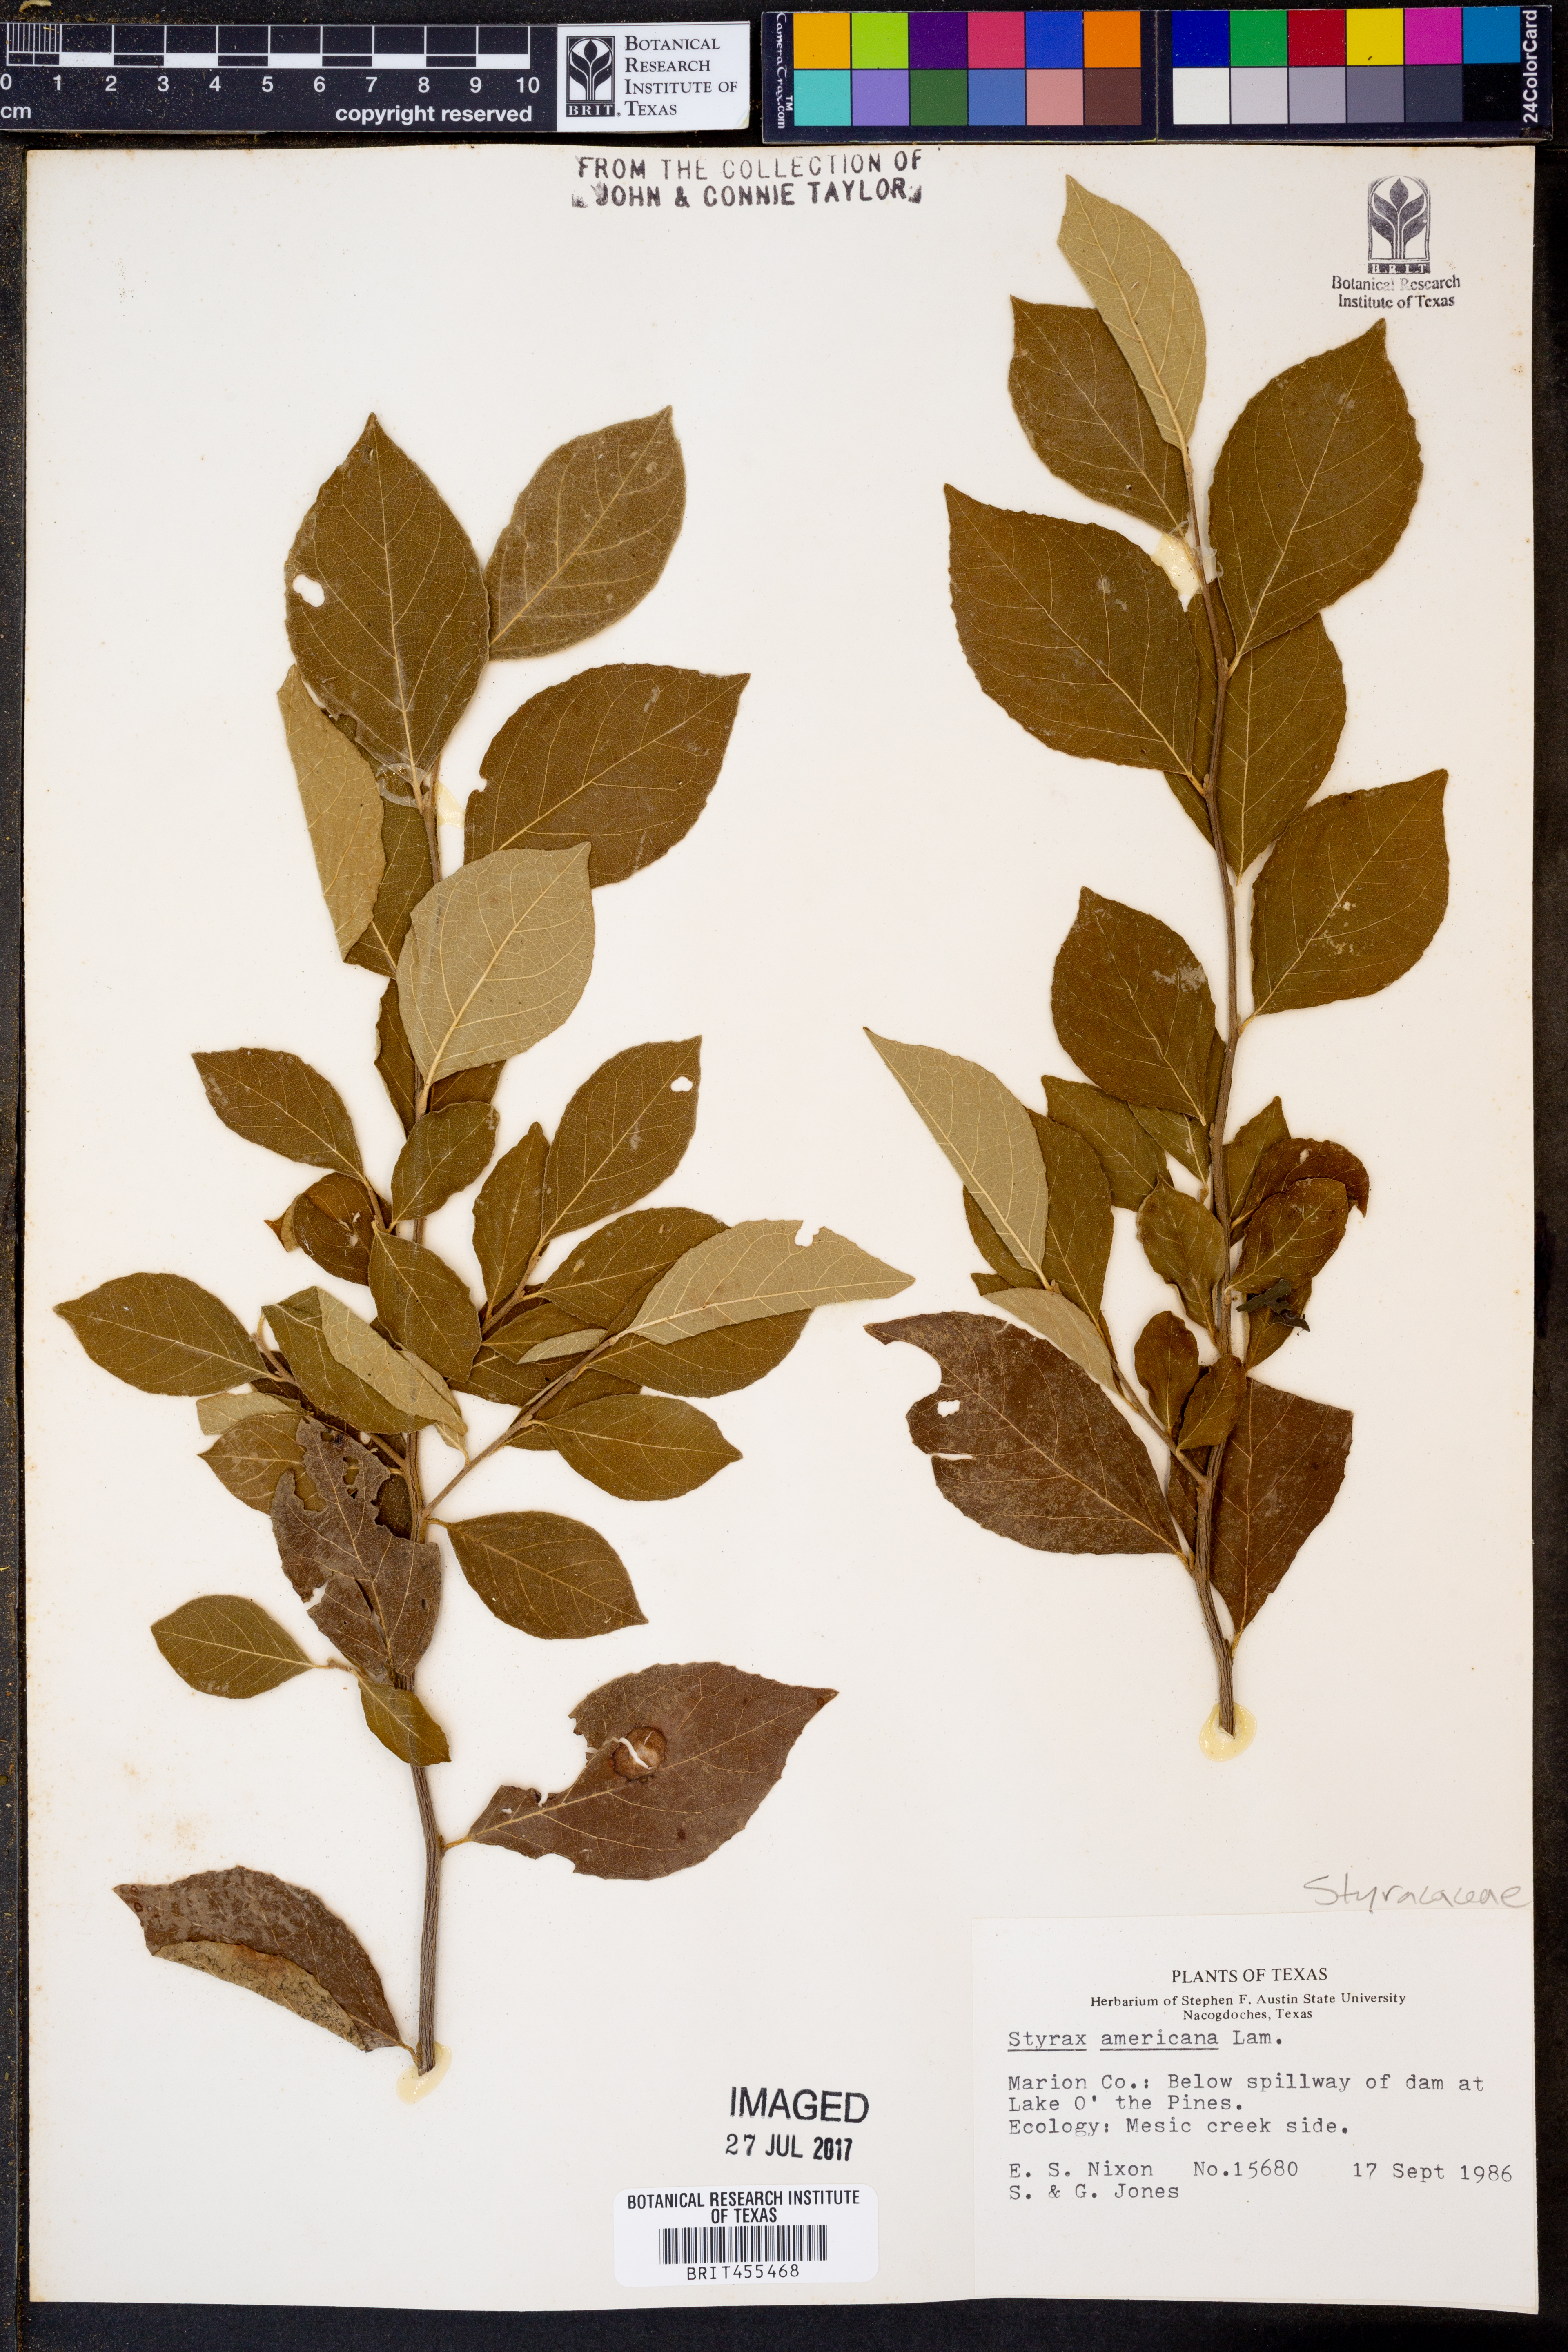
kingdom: Plantae
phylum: Tracheophyta
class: Magnoliopsida
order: Ericales
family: Styracaceae
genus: Styrax
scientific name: Styrax americanus
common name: American snowbell
